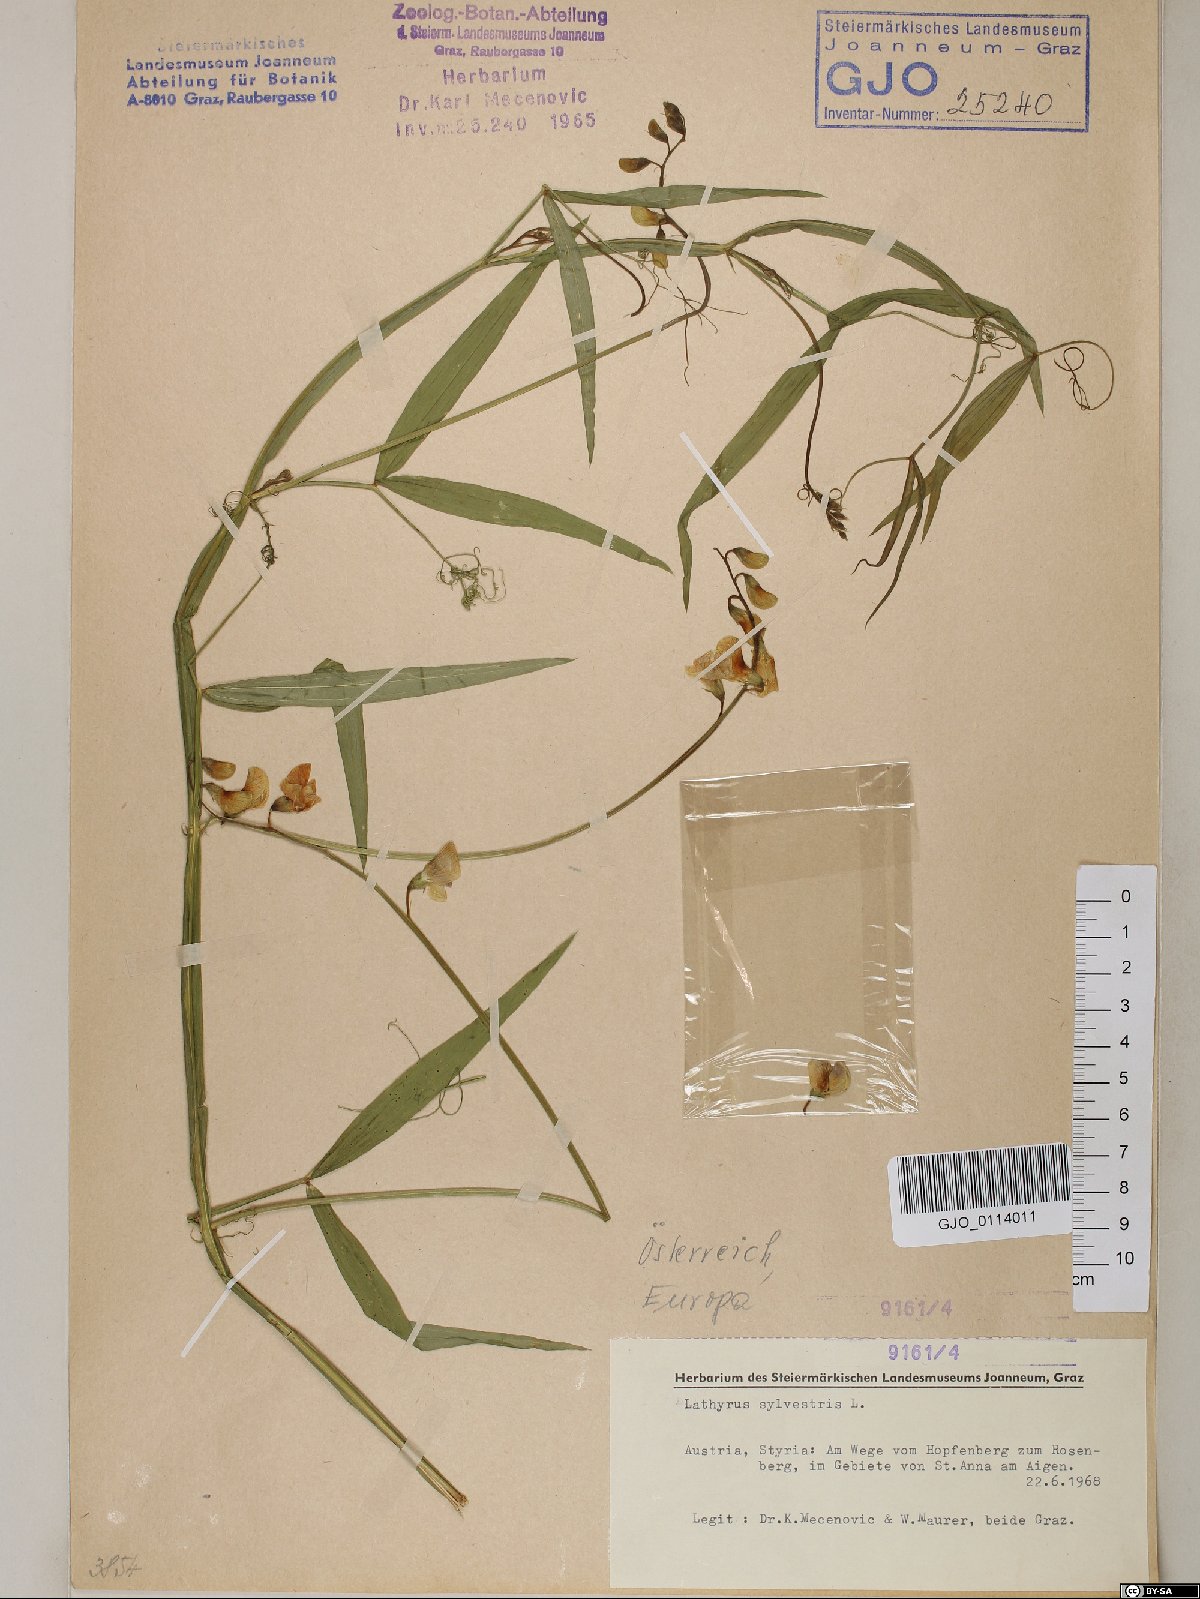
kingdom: Plantae
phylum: Tracheophyta
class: Magnoliopsida
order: Fabales
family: Fabaceae
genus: Lathyrus
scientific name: Lathyrus sylvestris
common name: Flat pea
